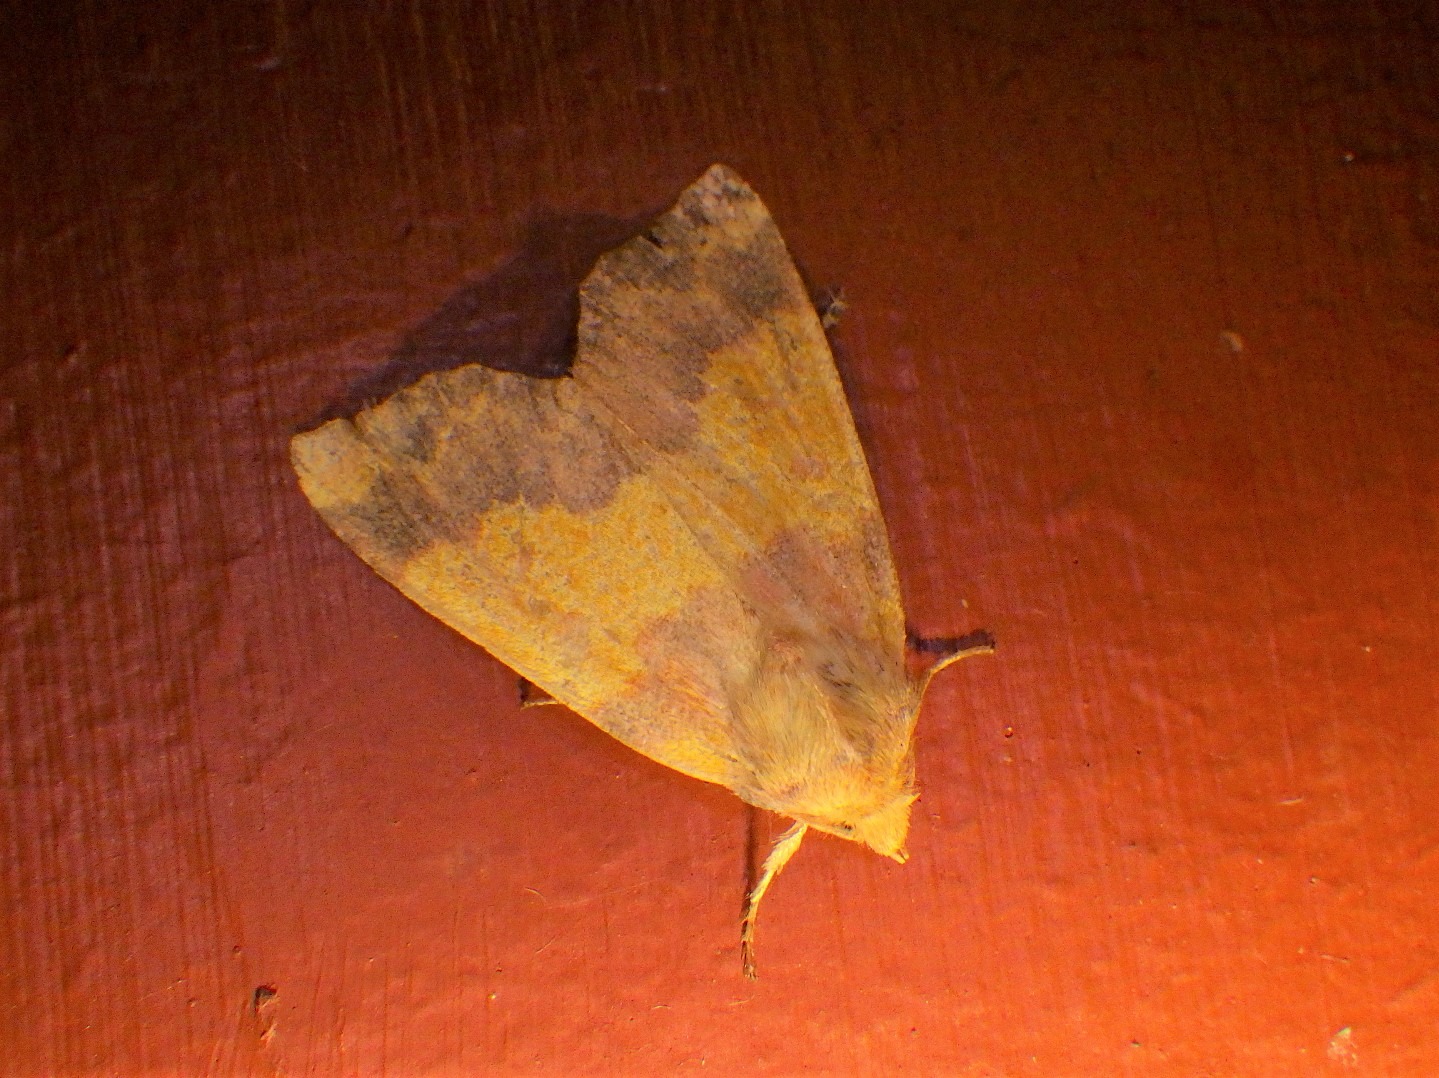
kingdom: Animalia
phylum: Arthropoda
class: Insecta
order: Lepidoptera
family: Noctuidae
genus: Tiliacea
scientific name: Tiliacea aurago
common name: Guldugle
